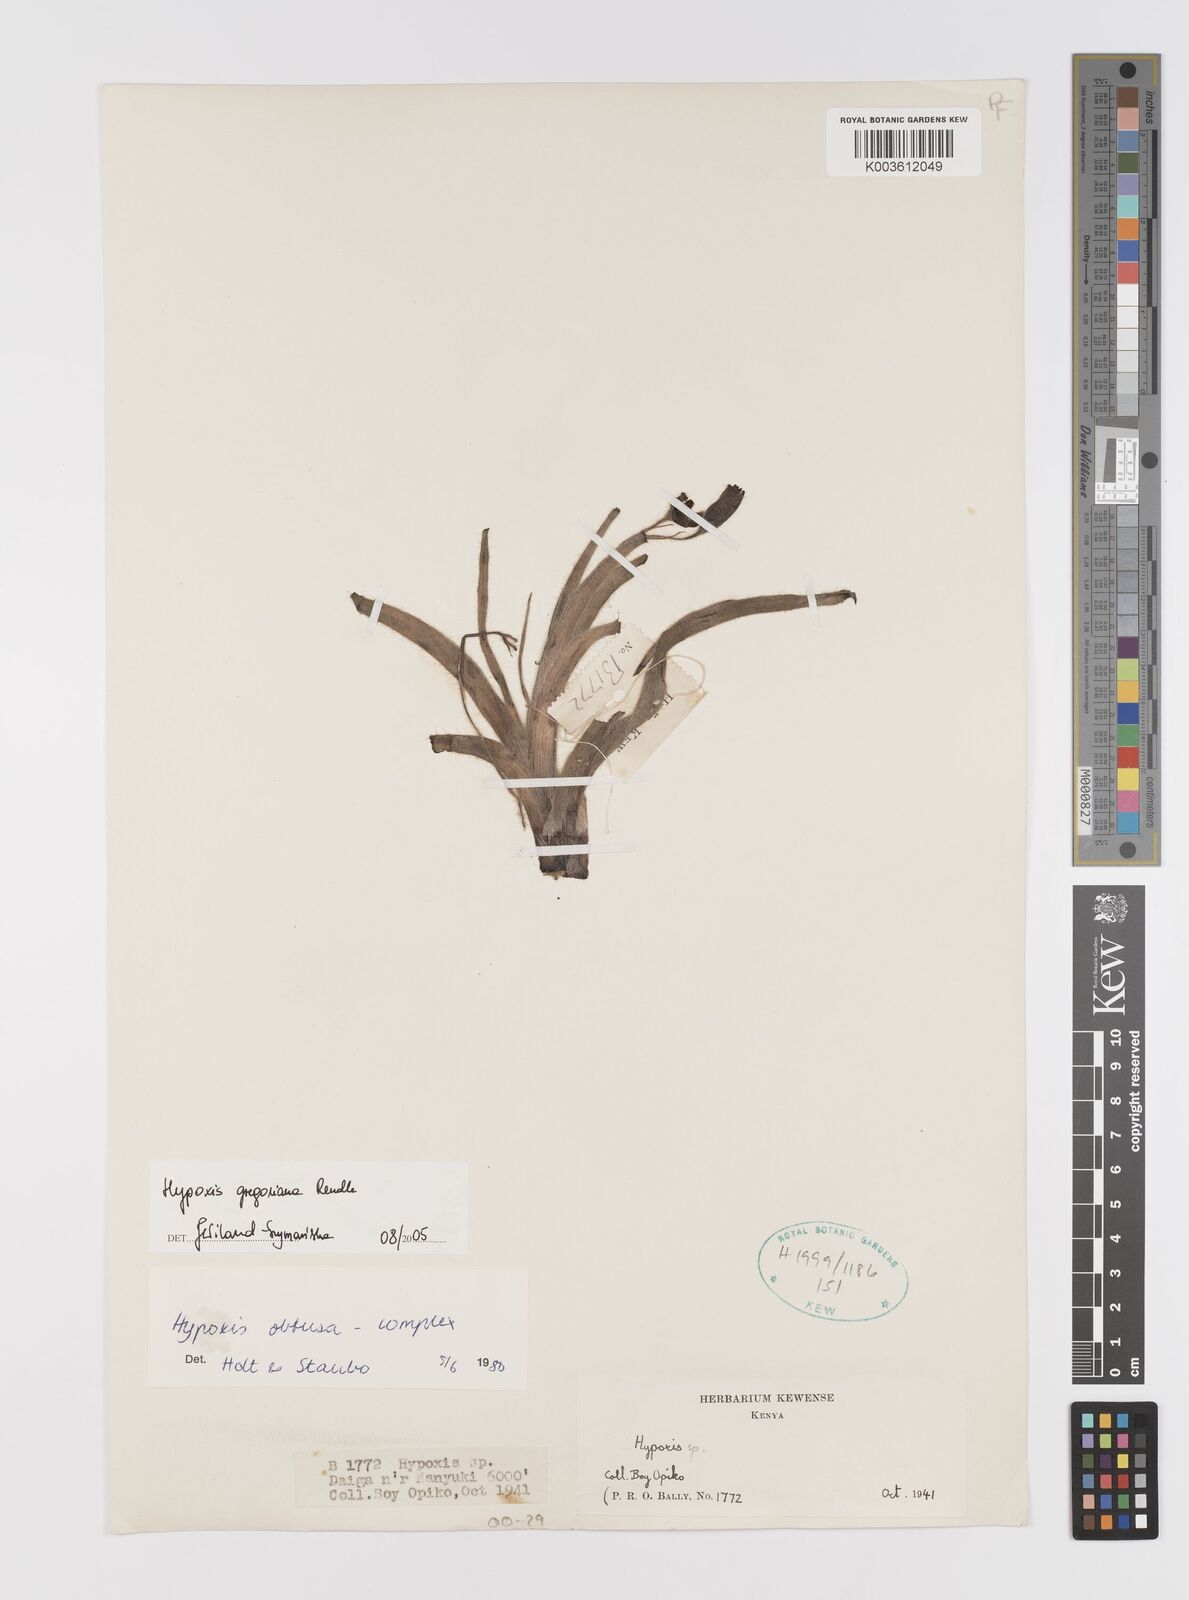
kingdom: Plantae
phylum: Tracheophyta
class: Liliopsida
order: Asparagales
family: Hypoxidaceae
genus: Hypoxis
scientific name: Hypoxis gregoriana
